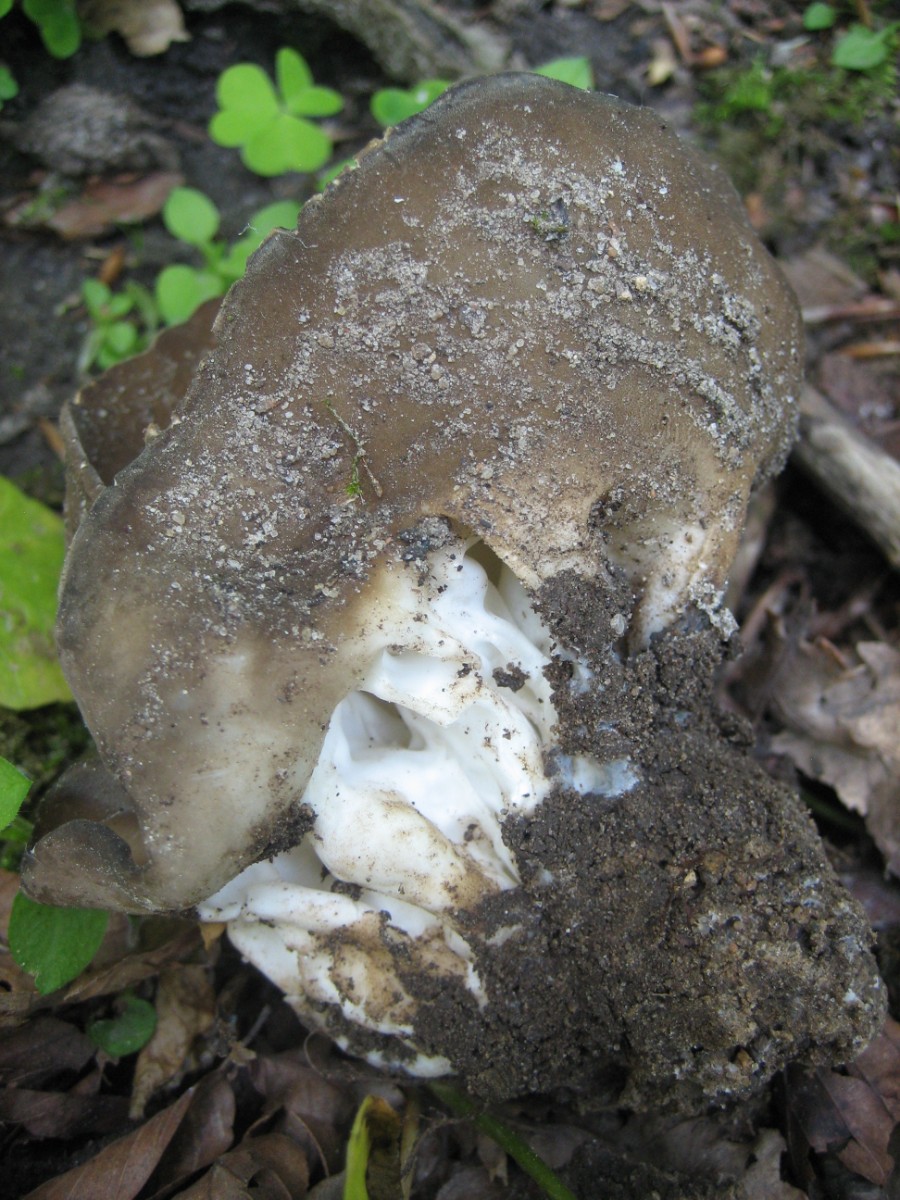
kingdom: Fungi
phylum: Ascomycota
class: Pezizomycetes
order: Pezizales
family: Helvellaceae
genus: Helvella
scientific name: Helvella acetabulum
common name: pokal-foldhat
